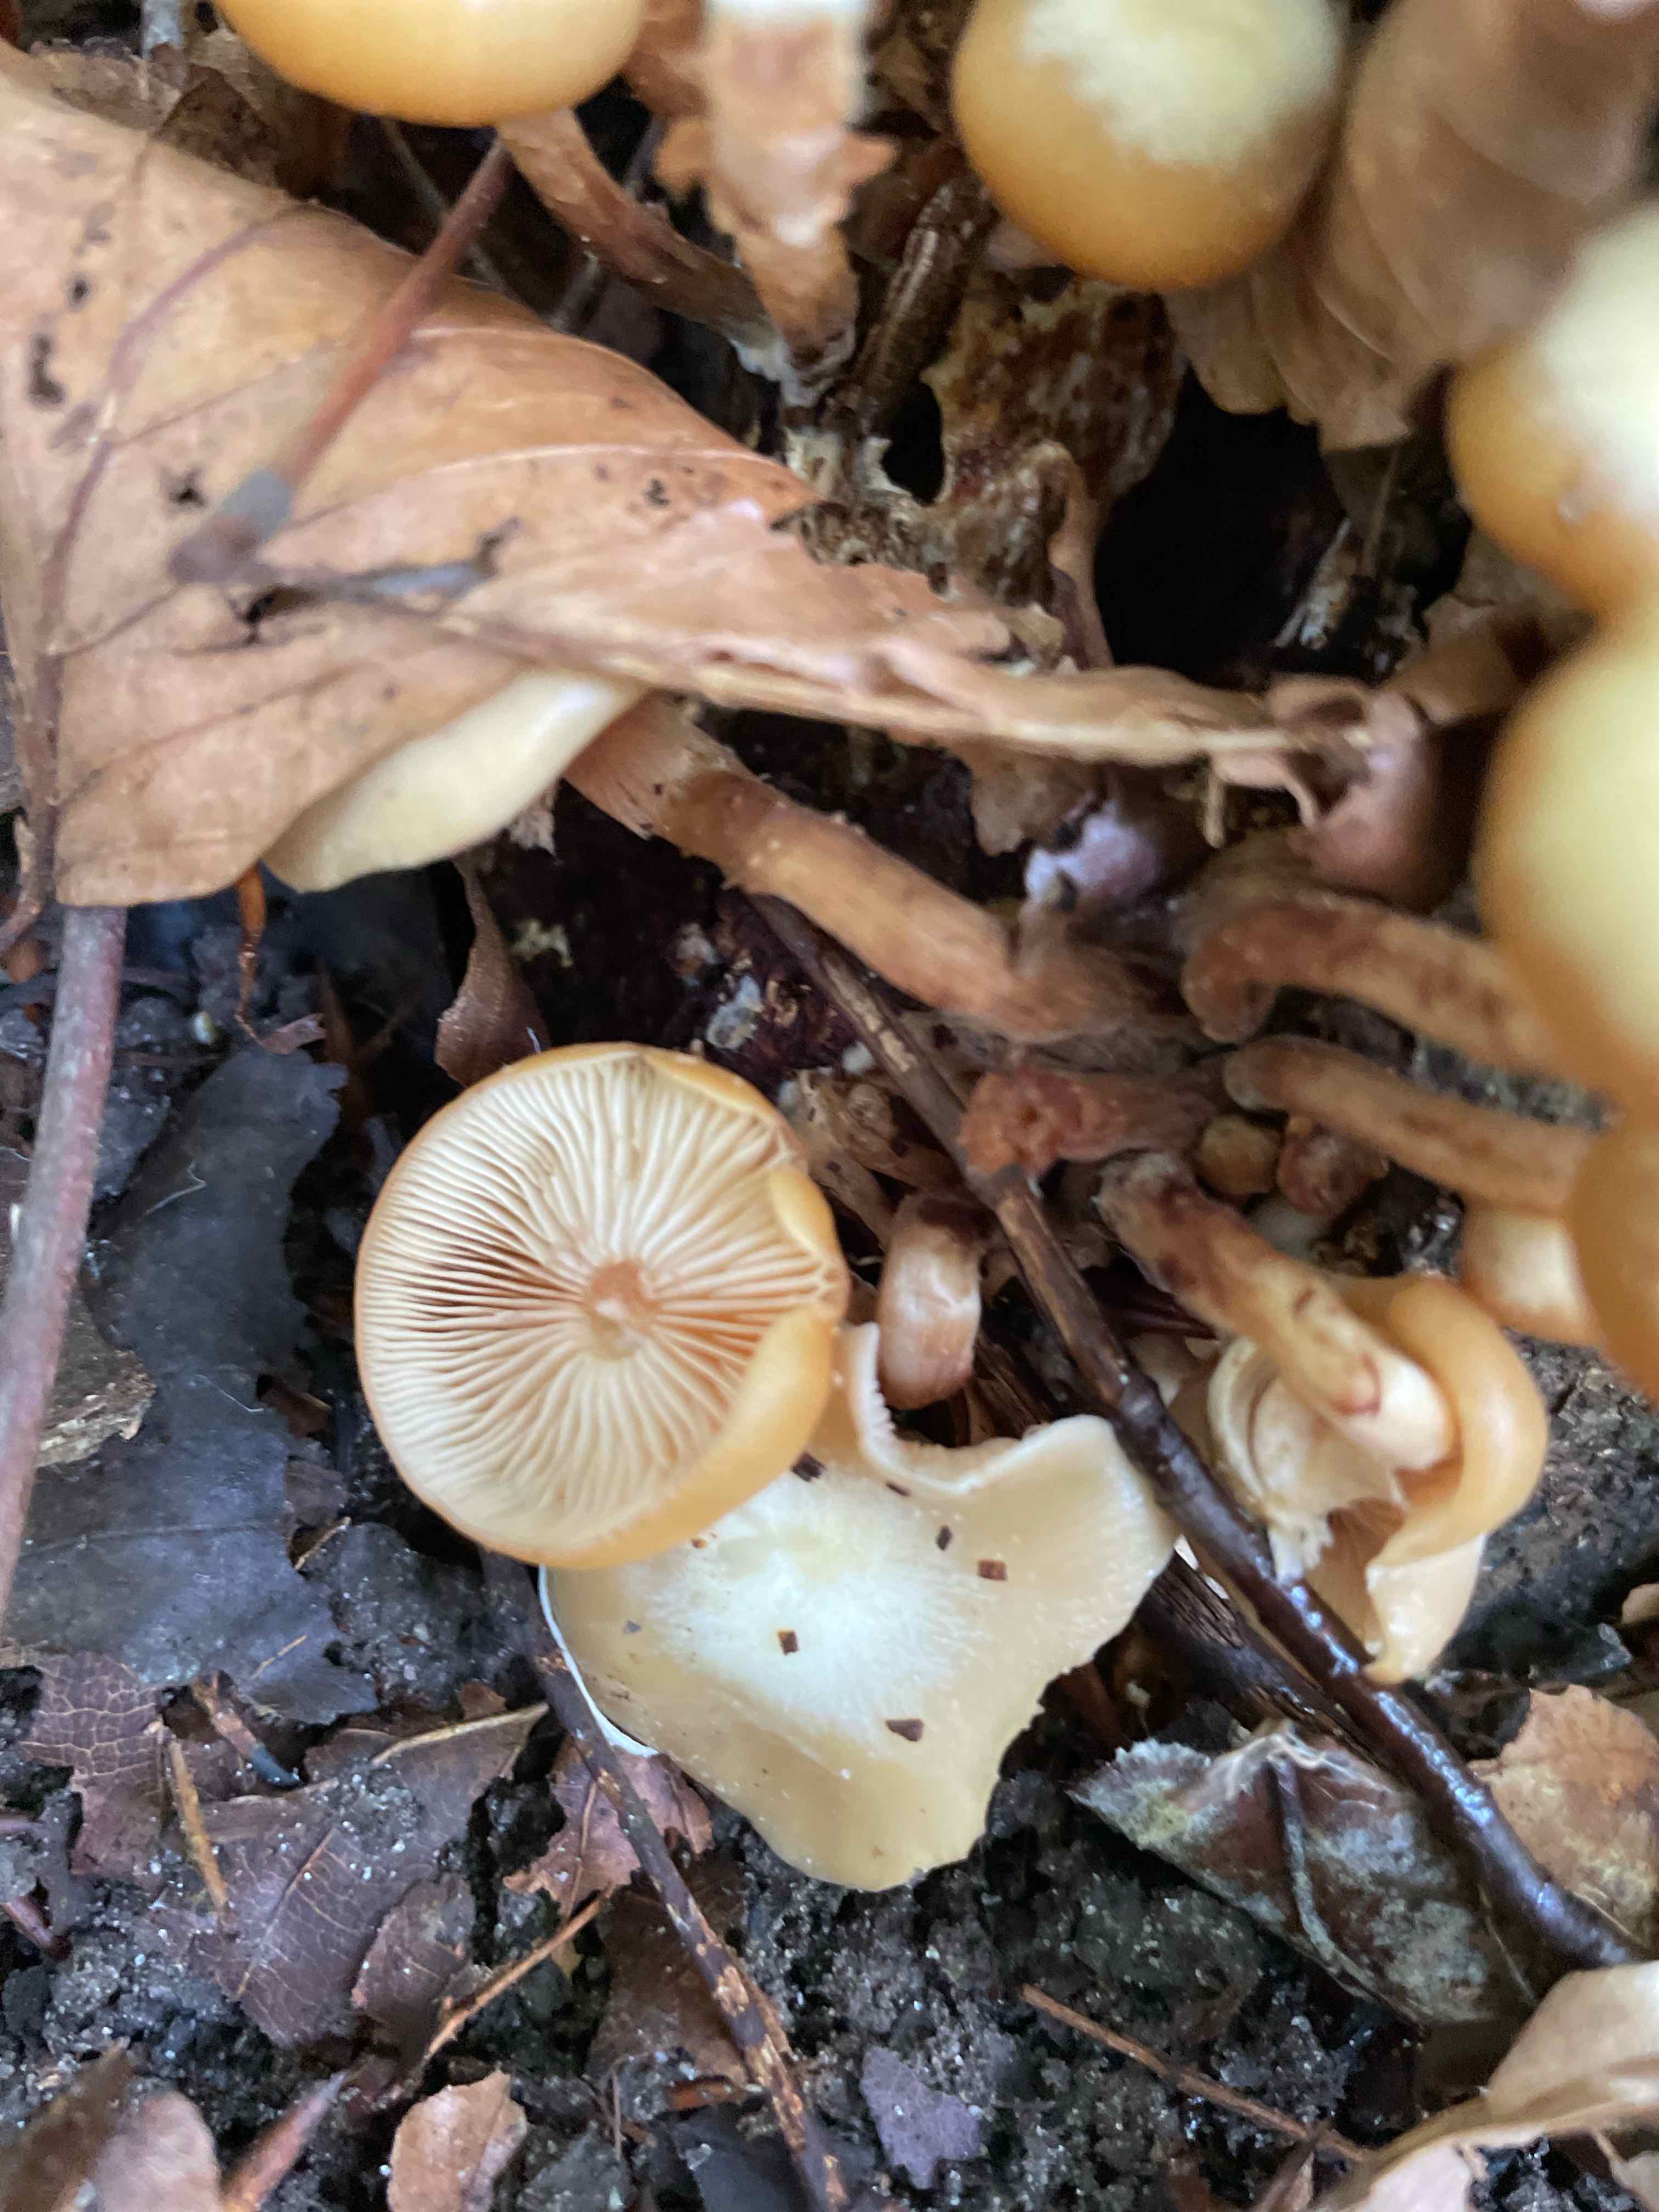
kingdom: Fungi
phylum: Basidiomycota
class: Agaricomycetes
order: Agaricales
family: Strophariaceae
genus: Kuehneromyces
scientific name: Kuehneromyces mutabilis
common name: foranderlig skælhat
